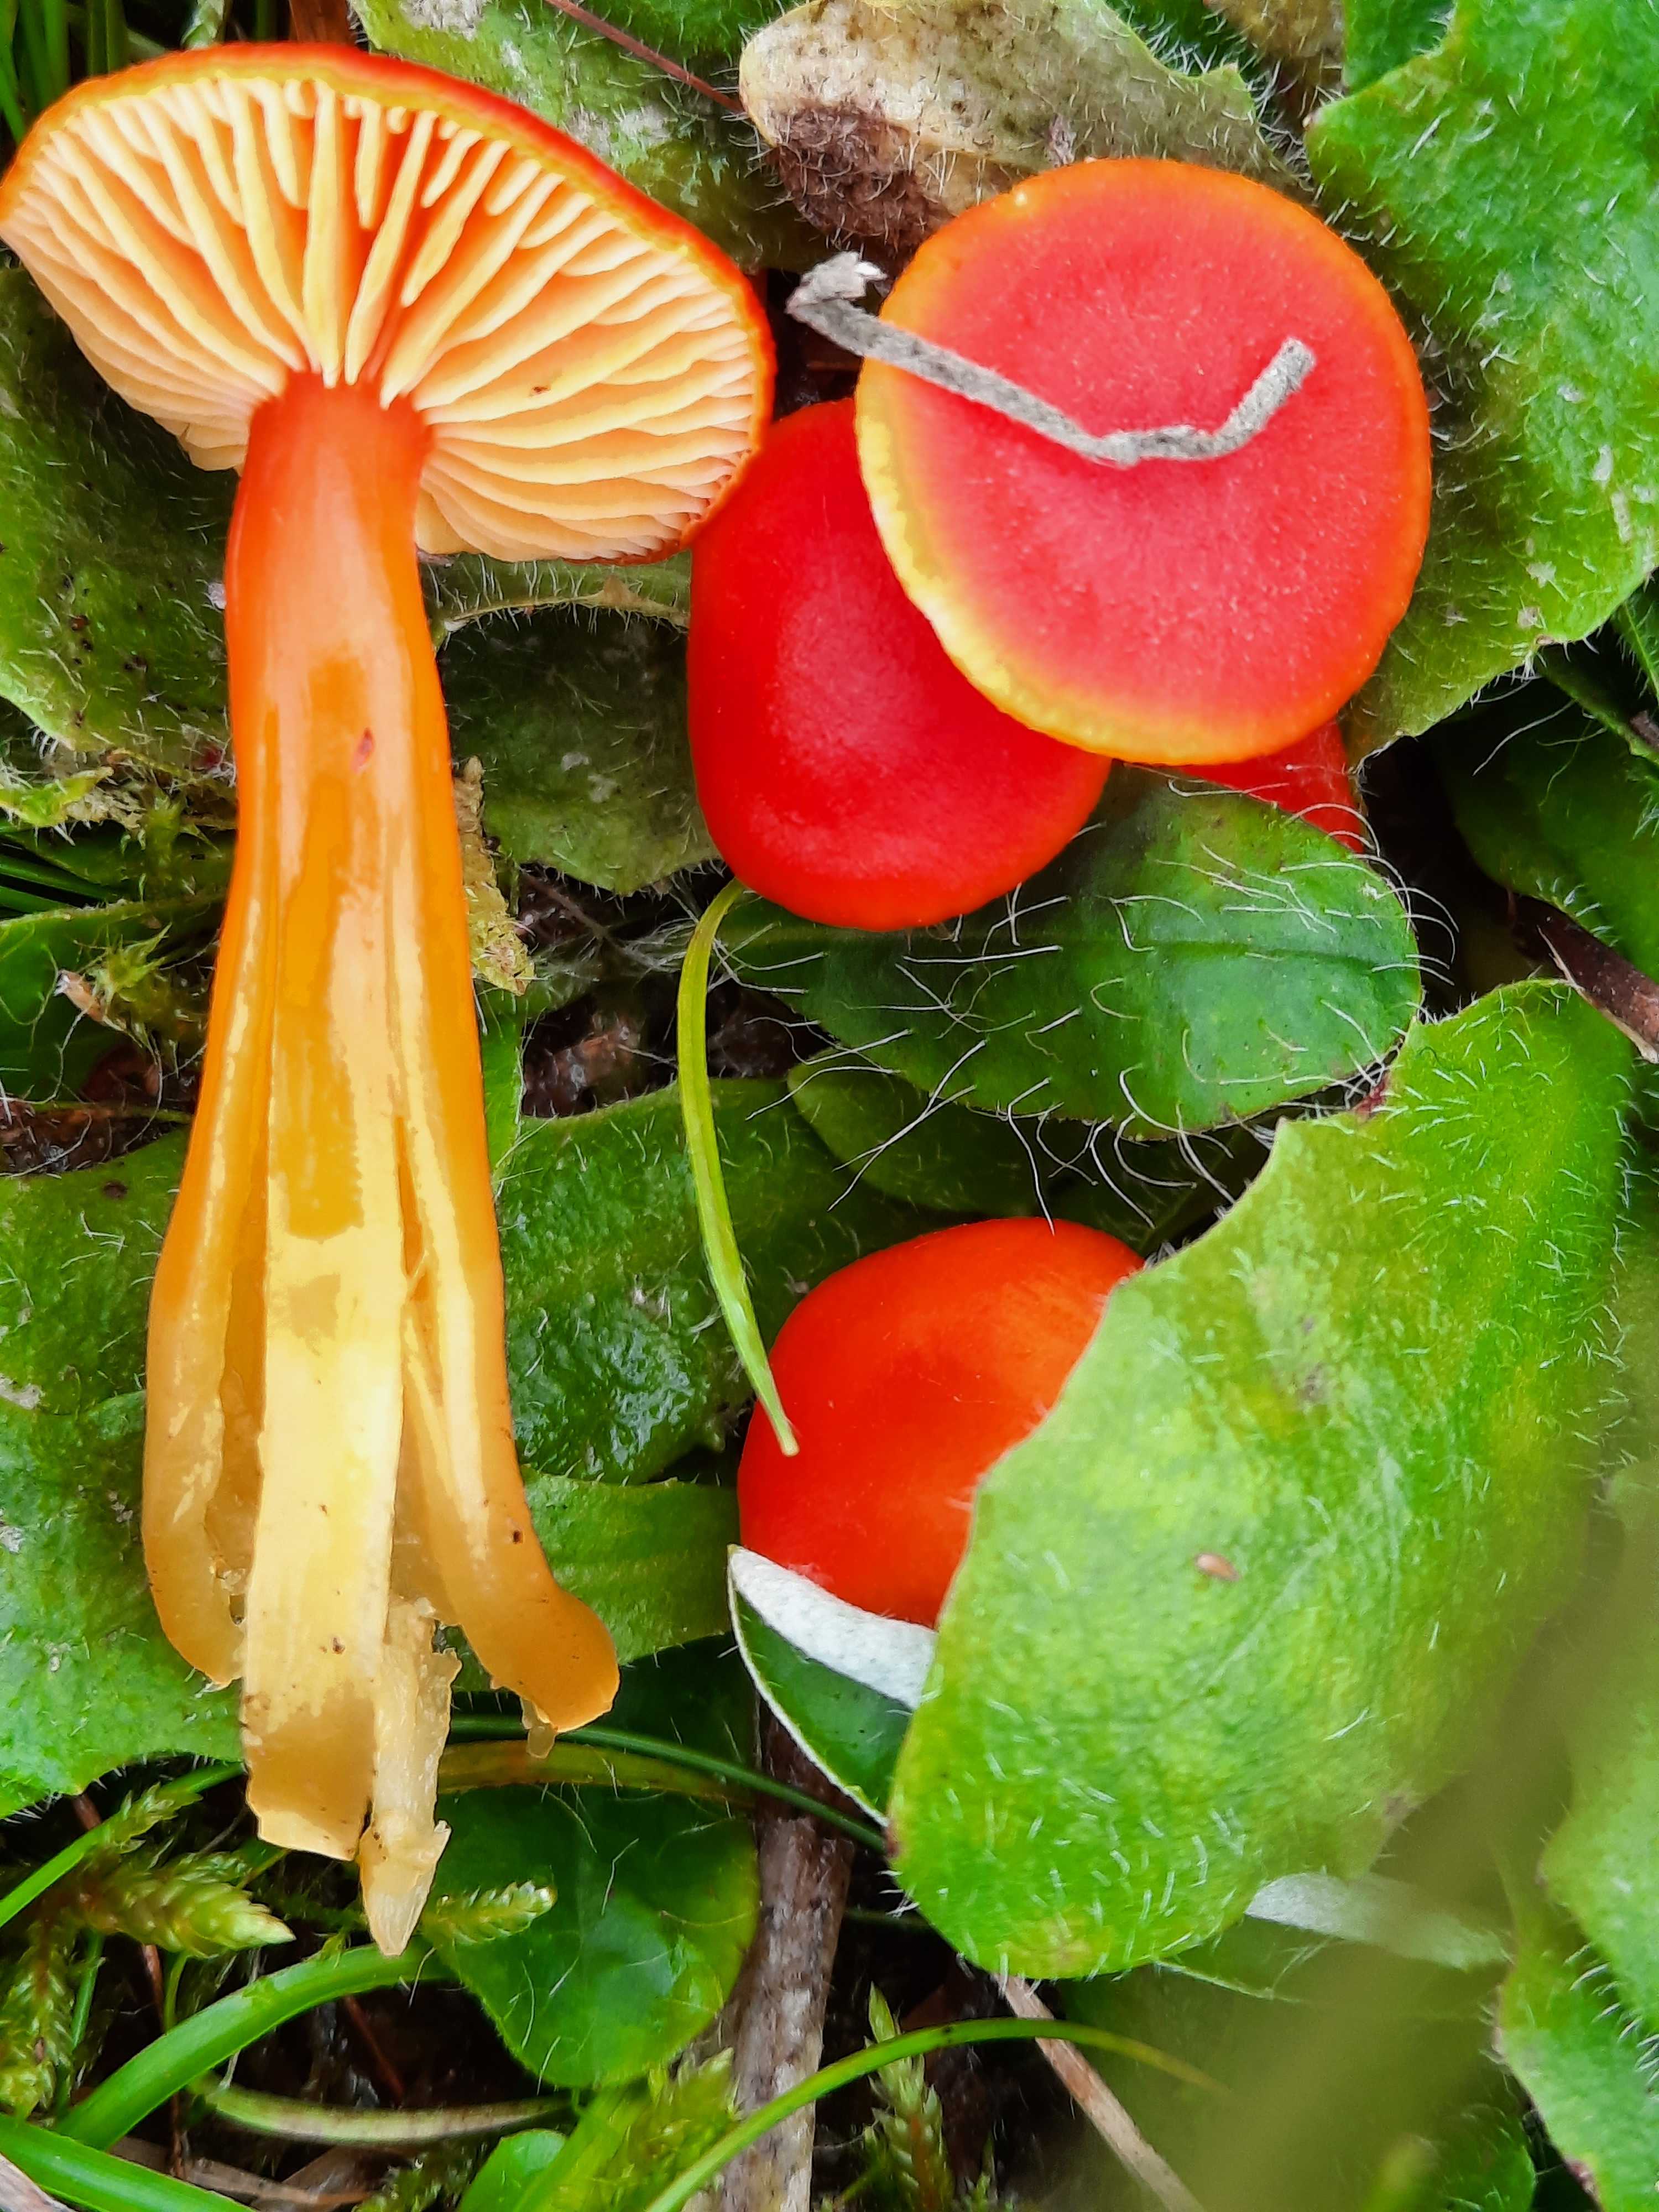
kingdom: Fungi
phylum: Basidiomycota
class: Agaricomycetes
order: Agaricales
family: Hygrophoraceae
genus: Hygrocybe
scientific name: Hygrocybe miniata
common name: mønje-vokshat
